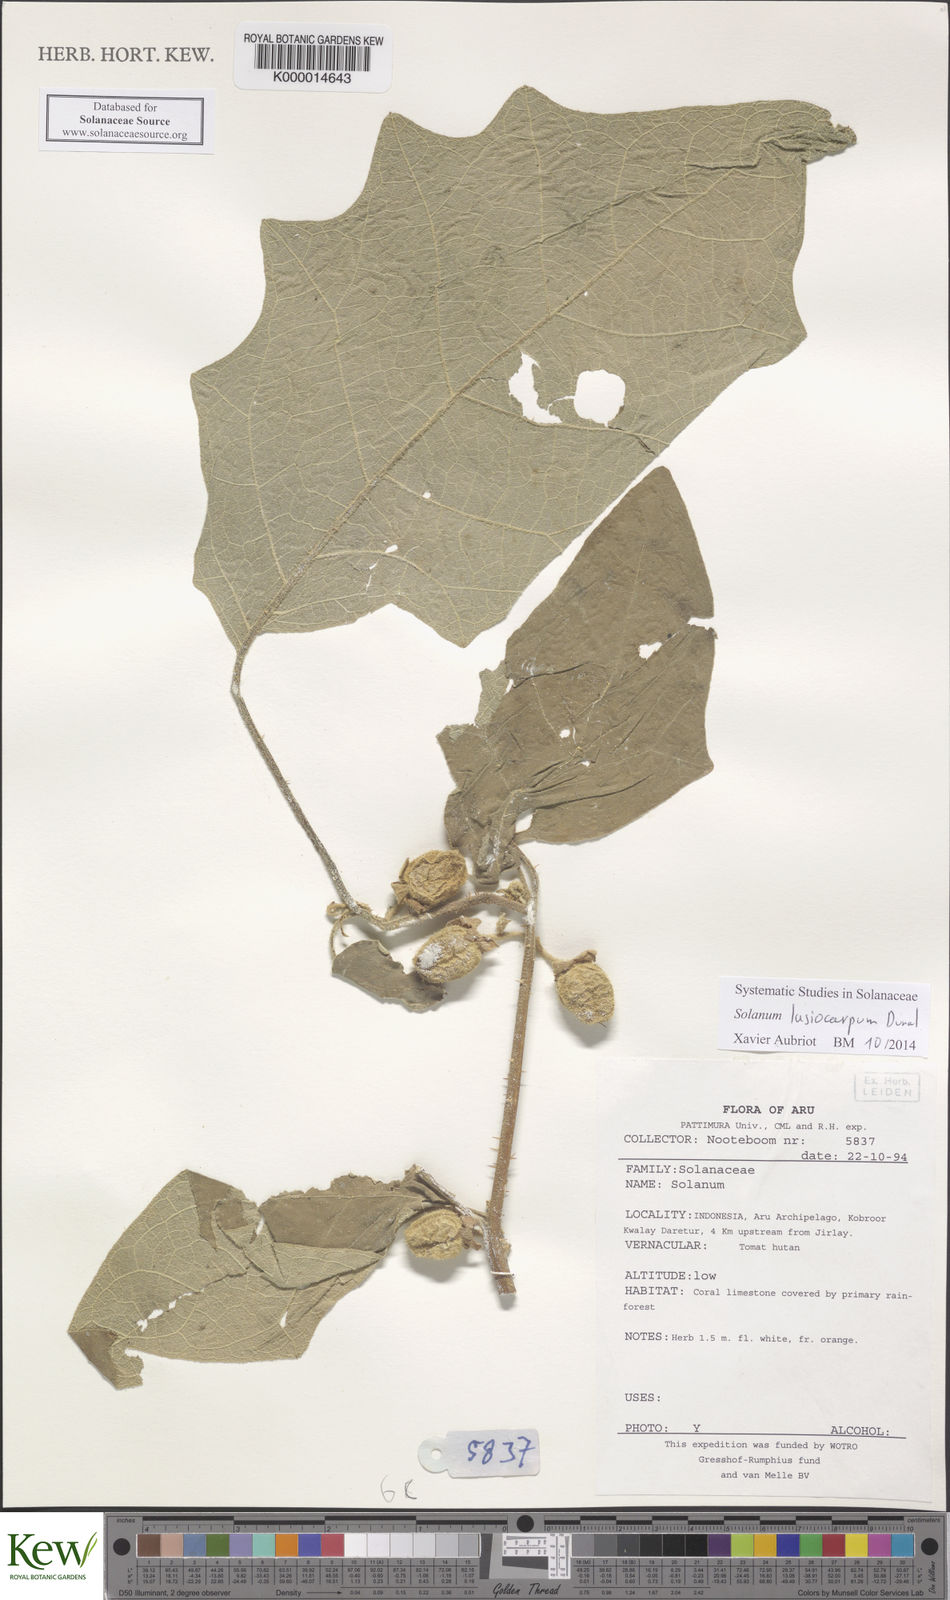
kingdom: Plantae
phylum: Tracheophyta
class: Magnoliopsida
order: Solanales
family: Solanaceae
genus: Solanum
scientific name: Solanum lasiocarpum
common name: Indian nightshade
